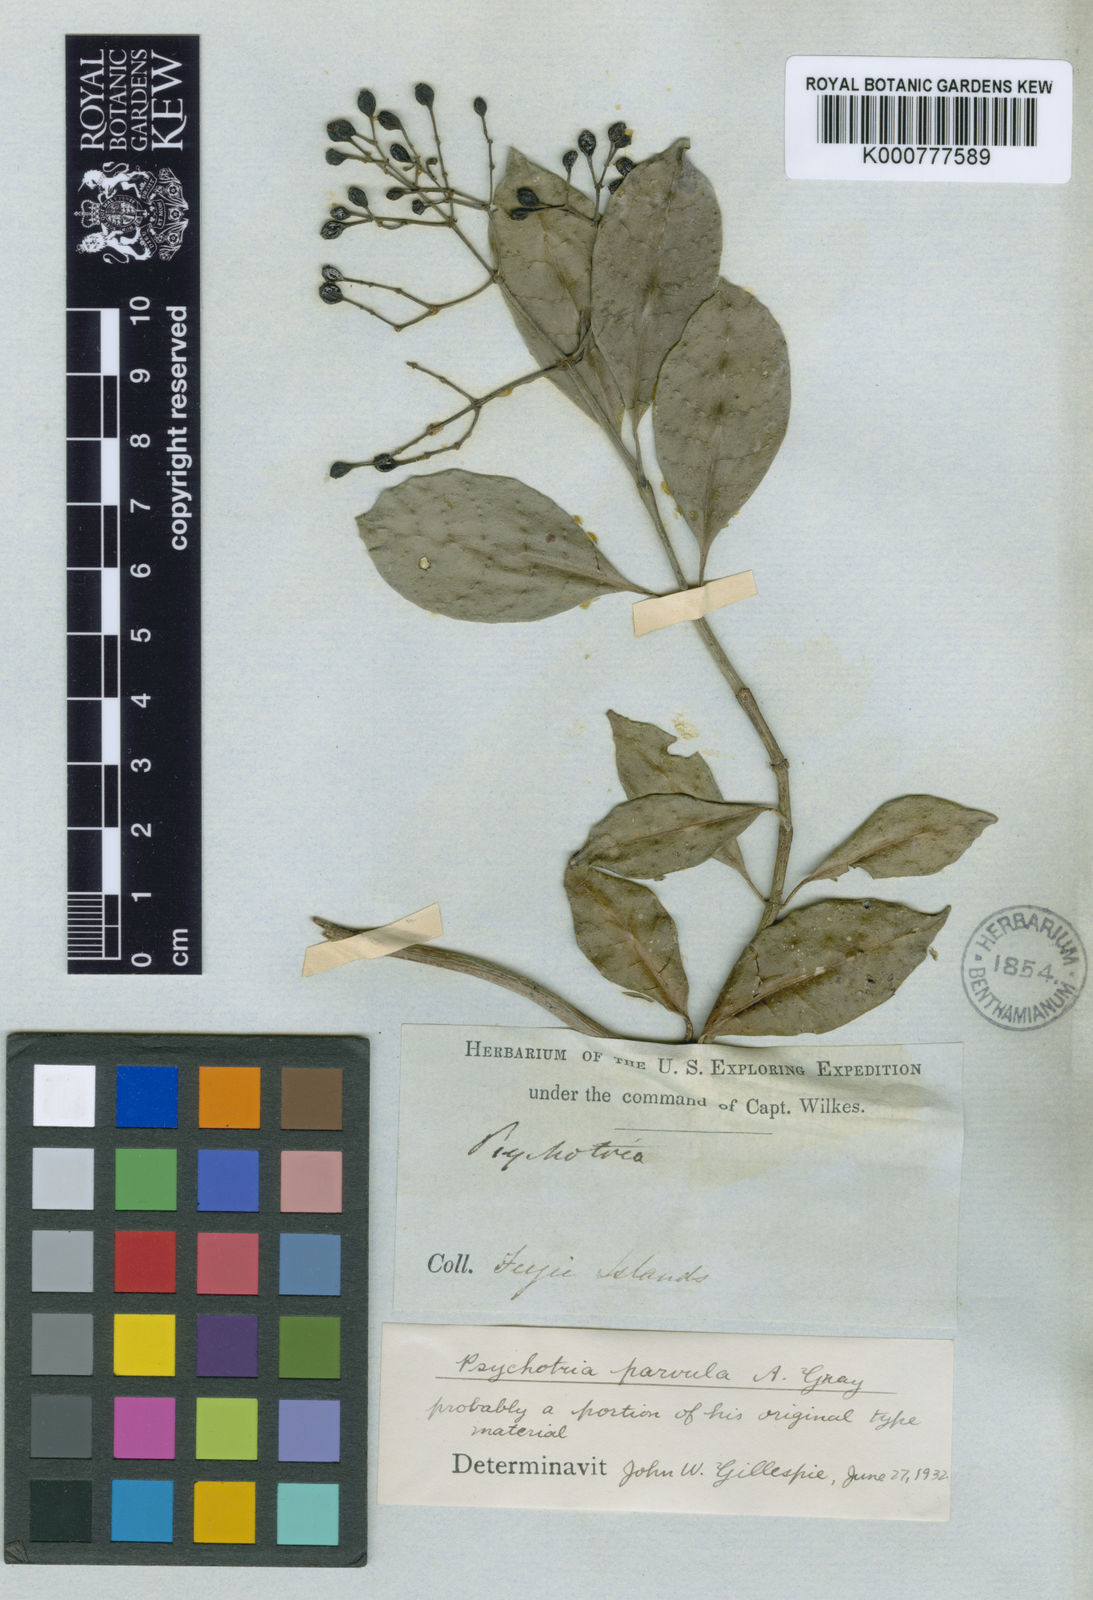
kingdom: Plantae
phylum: Tracheophyta
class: Magnoliopsida
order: Gentianales
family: Rubiaceae
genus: Psychotria
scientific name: Psychotria serpens
